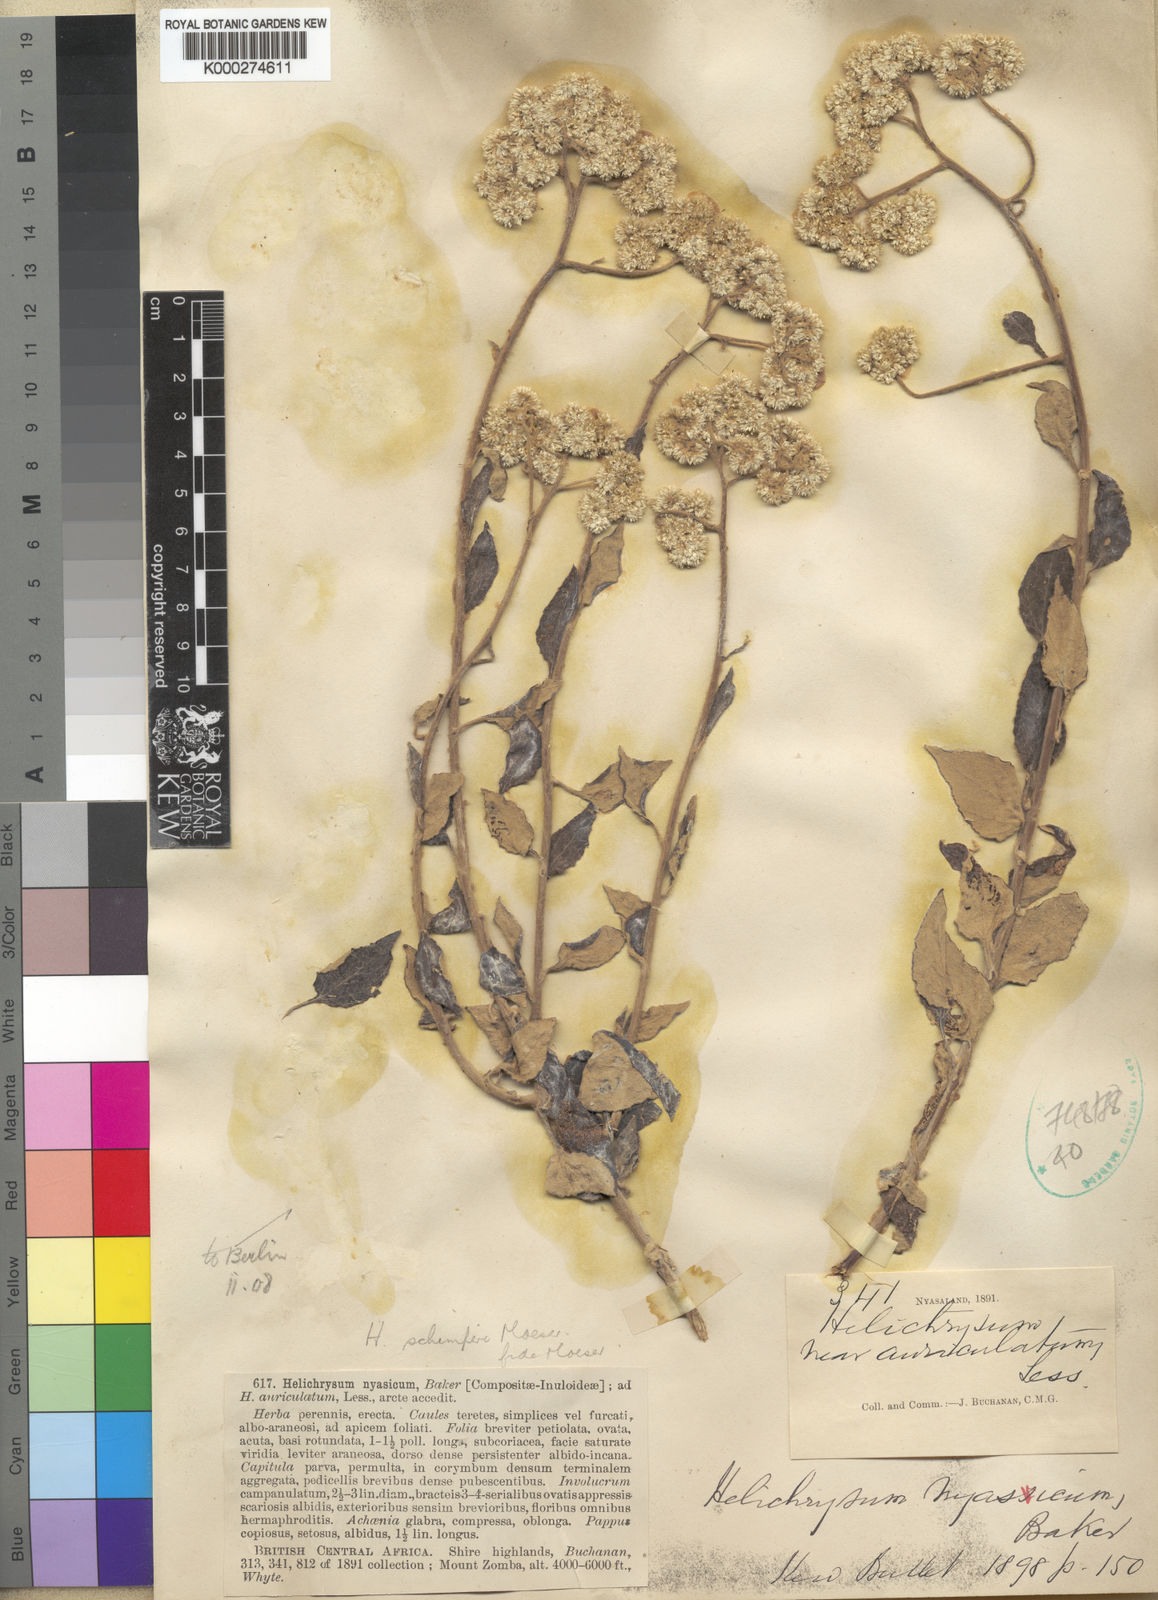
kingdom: Plantae
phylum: Tracheophyta
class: Magnoliopsida
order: Asterales
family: Asteraceae
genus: Helichrysum
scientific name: Helichrysum schimperi
